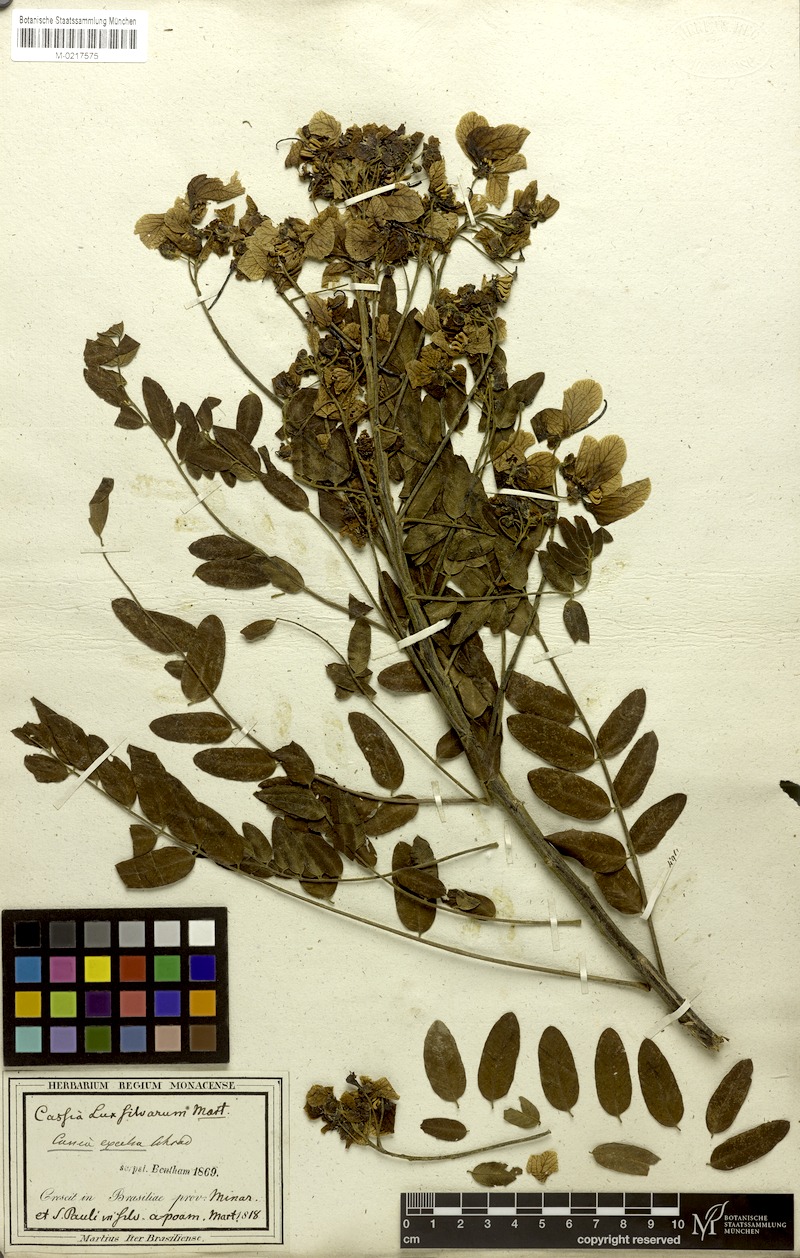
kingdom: Plantae
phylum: Tracheophyta
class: Magnoliopsida
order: Fabales
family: Fabaceae
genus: Senna
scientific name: Senna spectabilis
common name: Casia amarilla
